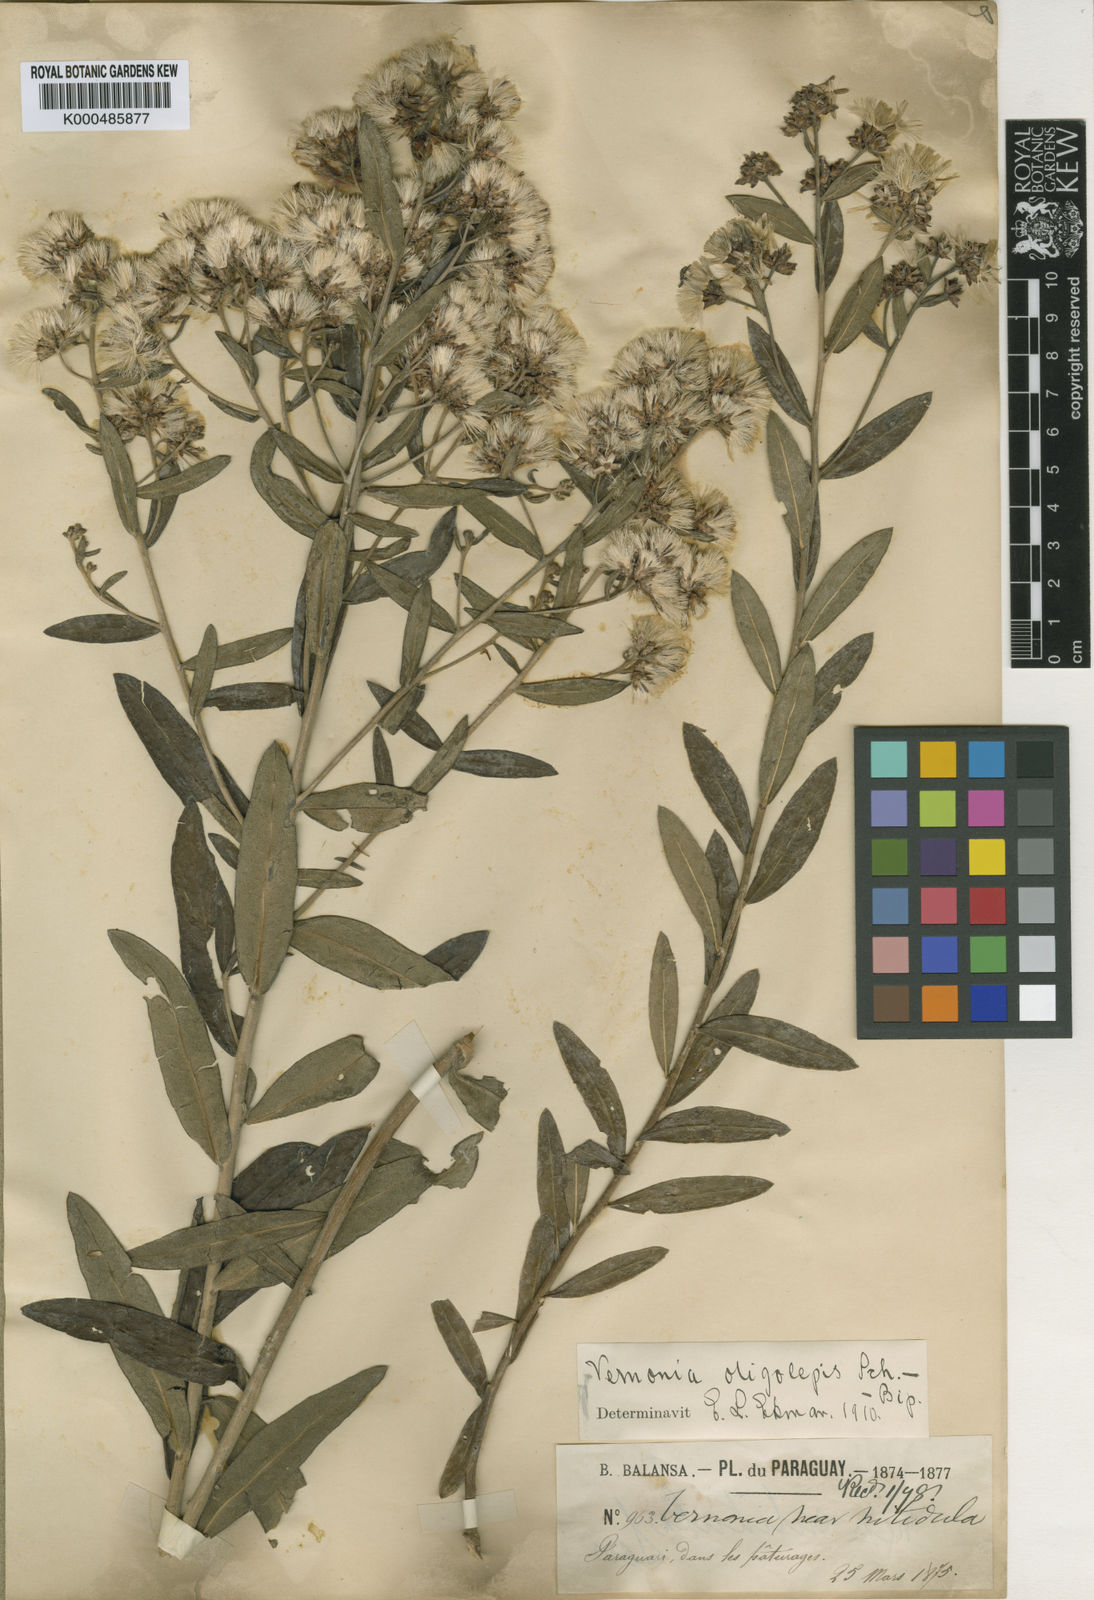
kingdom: Plantae
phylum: Tracheophyta
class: Magnoliopsida
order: Asterales
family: Asteraceae
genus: Vernonanthura
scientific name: Vernonanthura oligolepis
